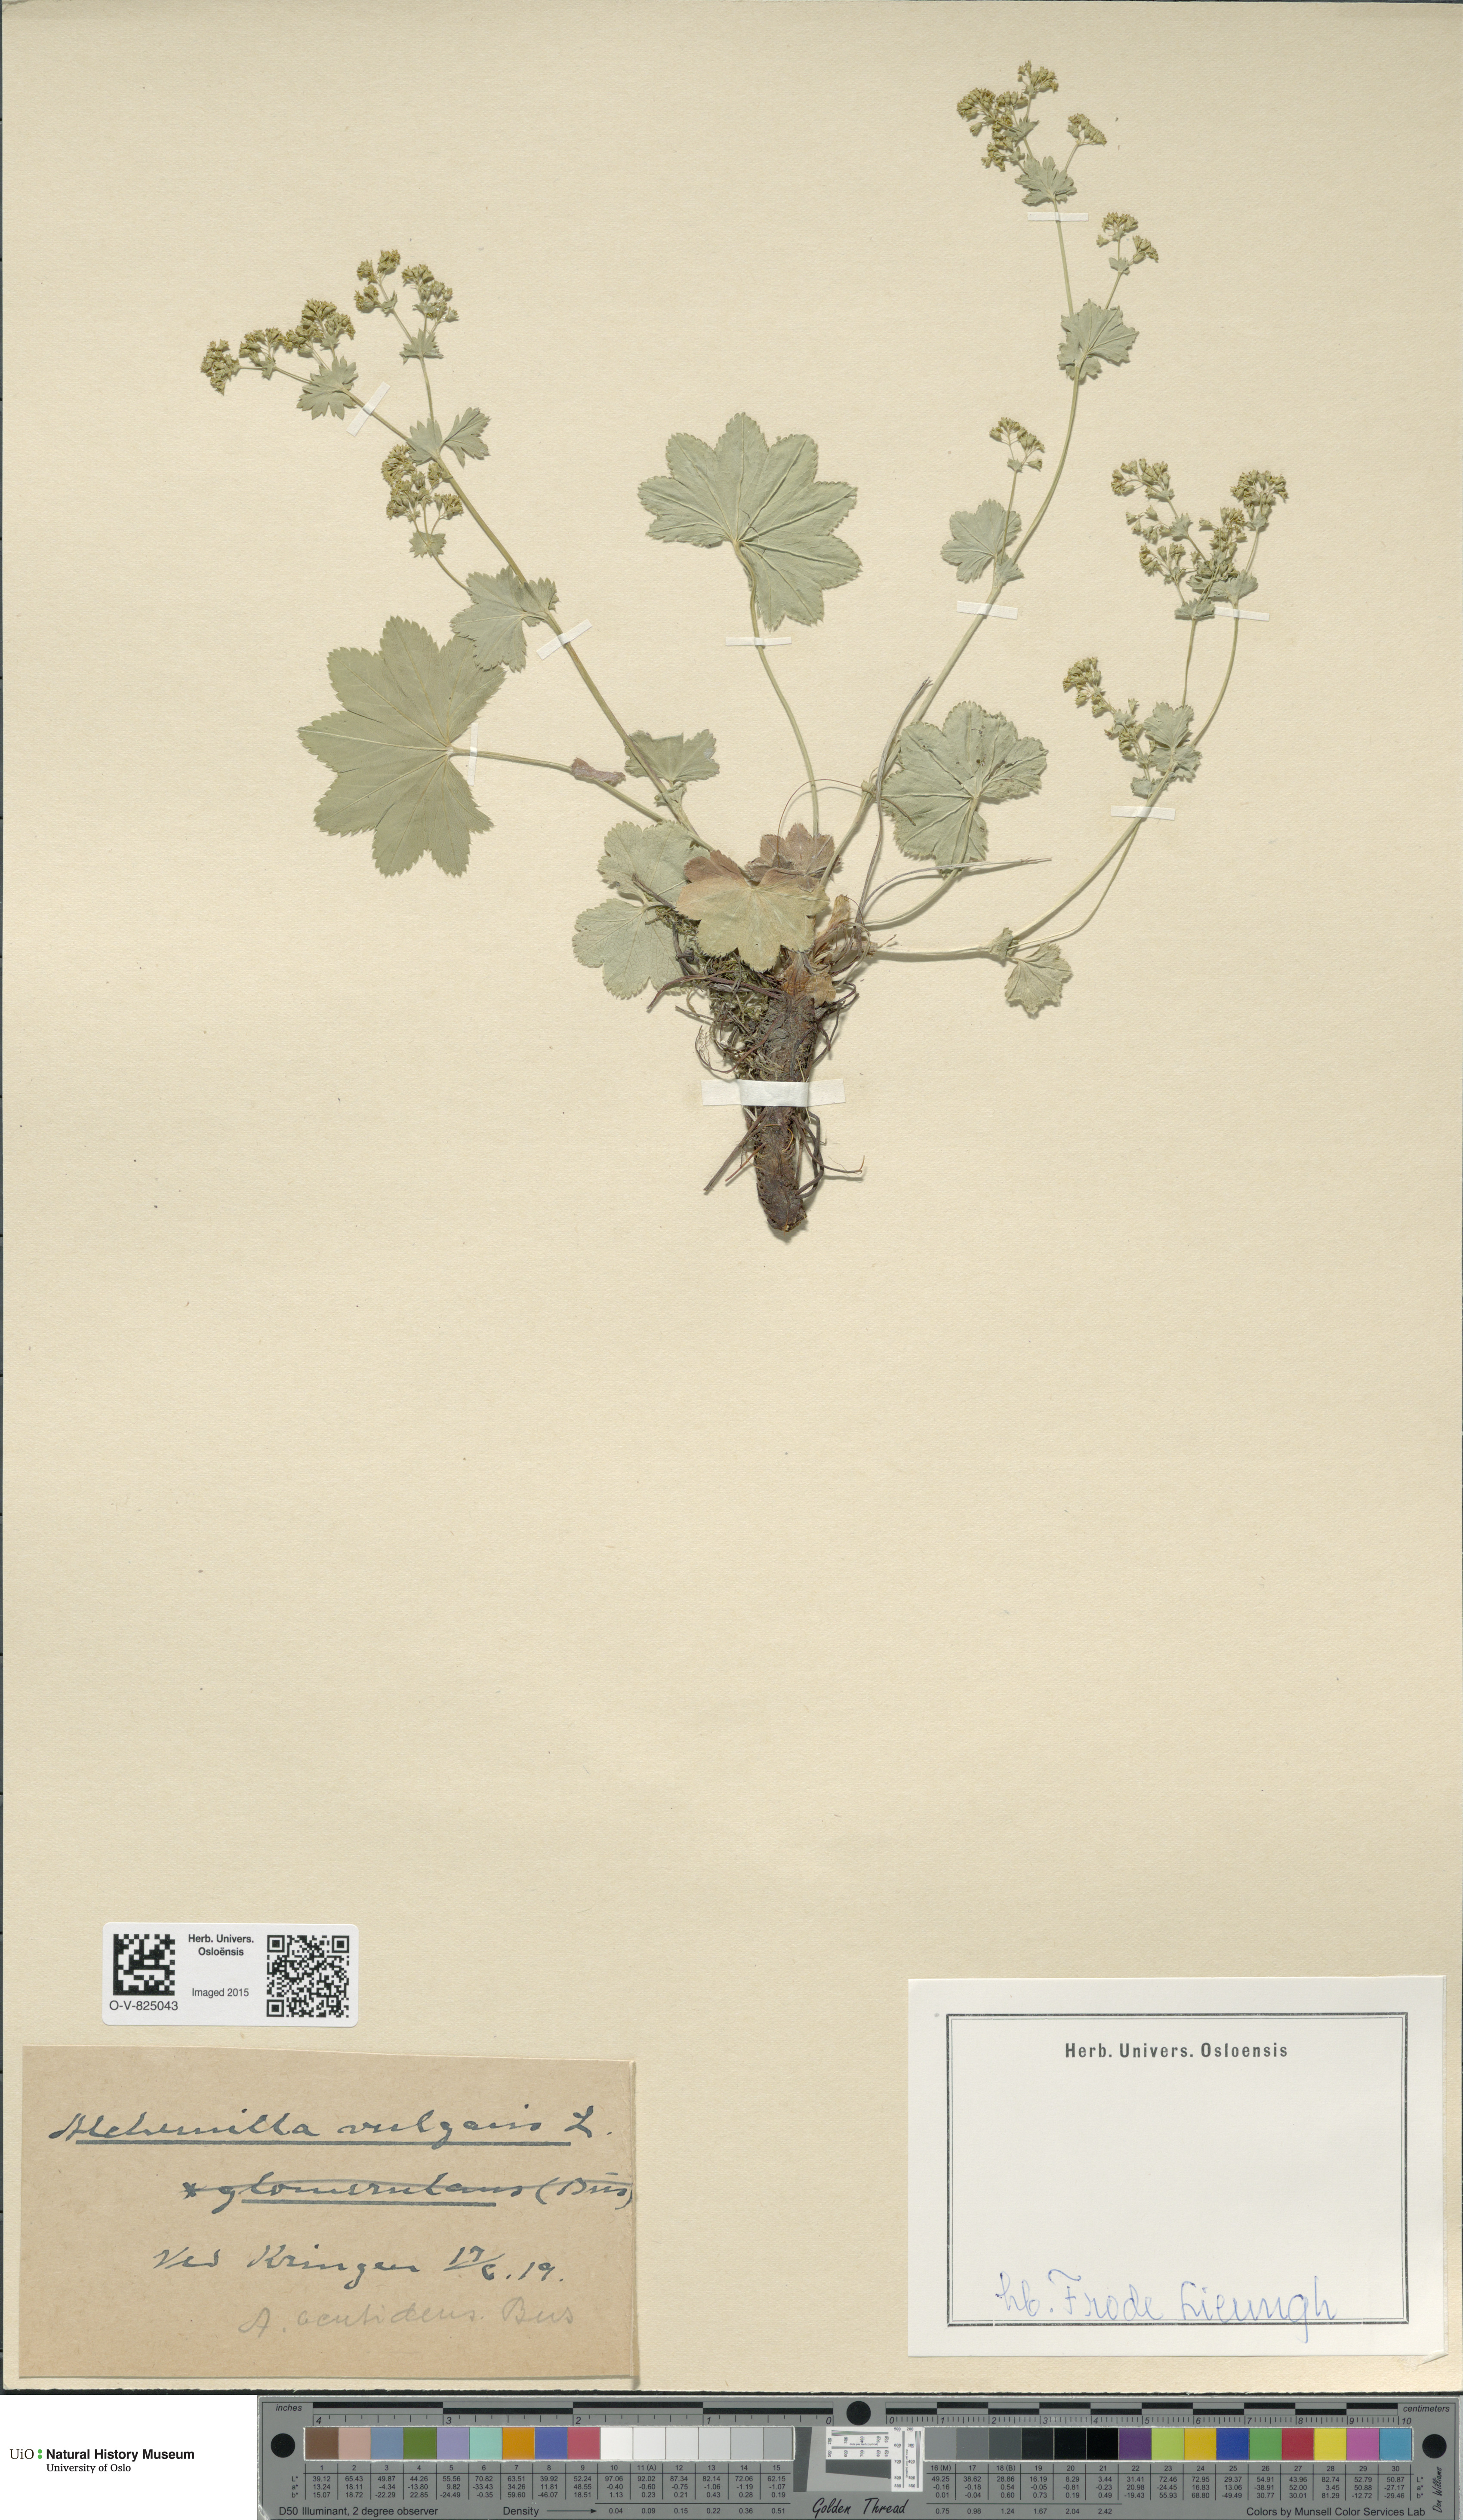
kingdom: Plantae
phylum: Tracheophyta
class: Magnoliopsida
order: Rosales
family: Rosaceae
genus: Alchemilla
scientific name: Alchemilla vulgaris
